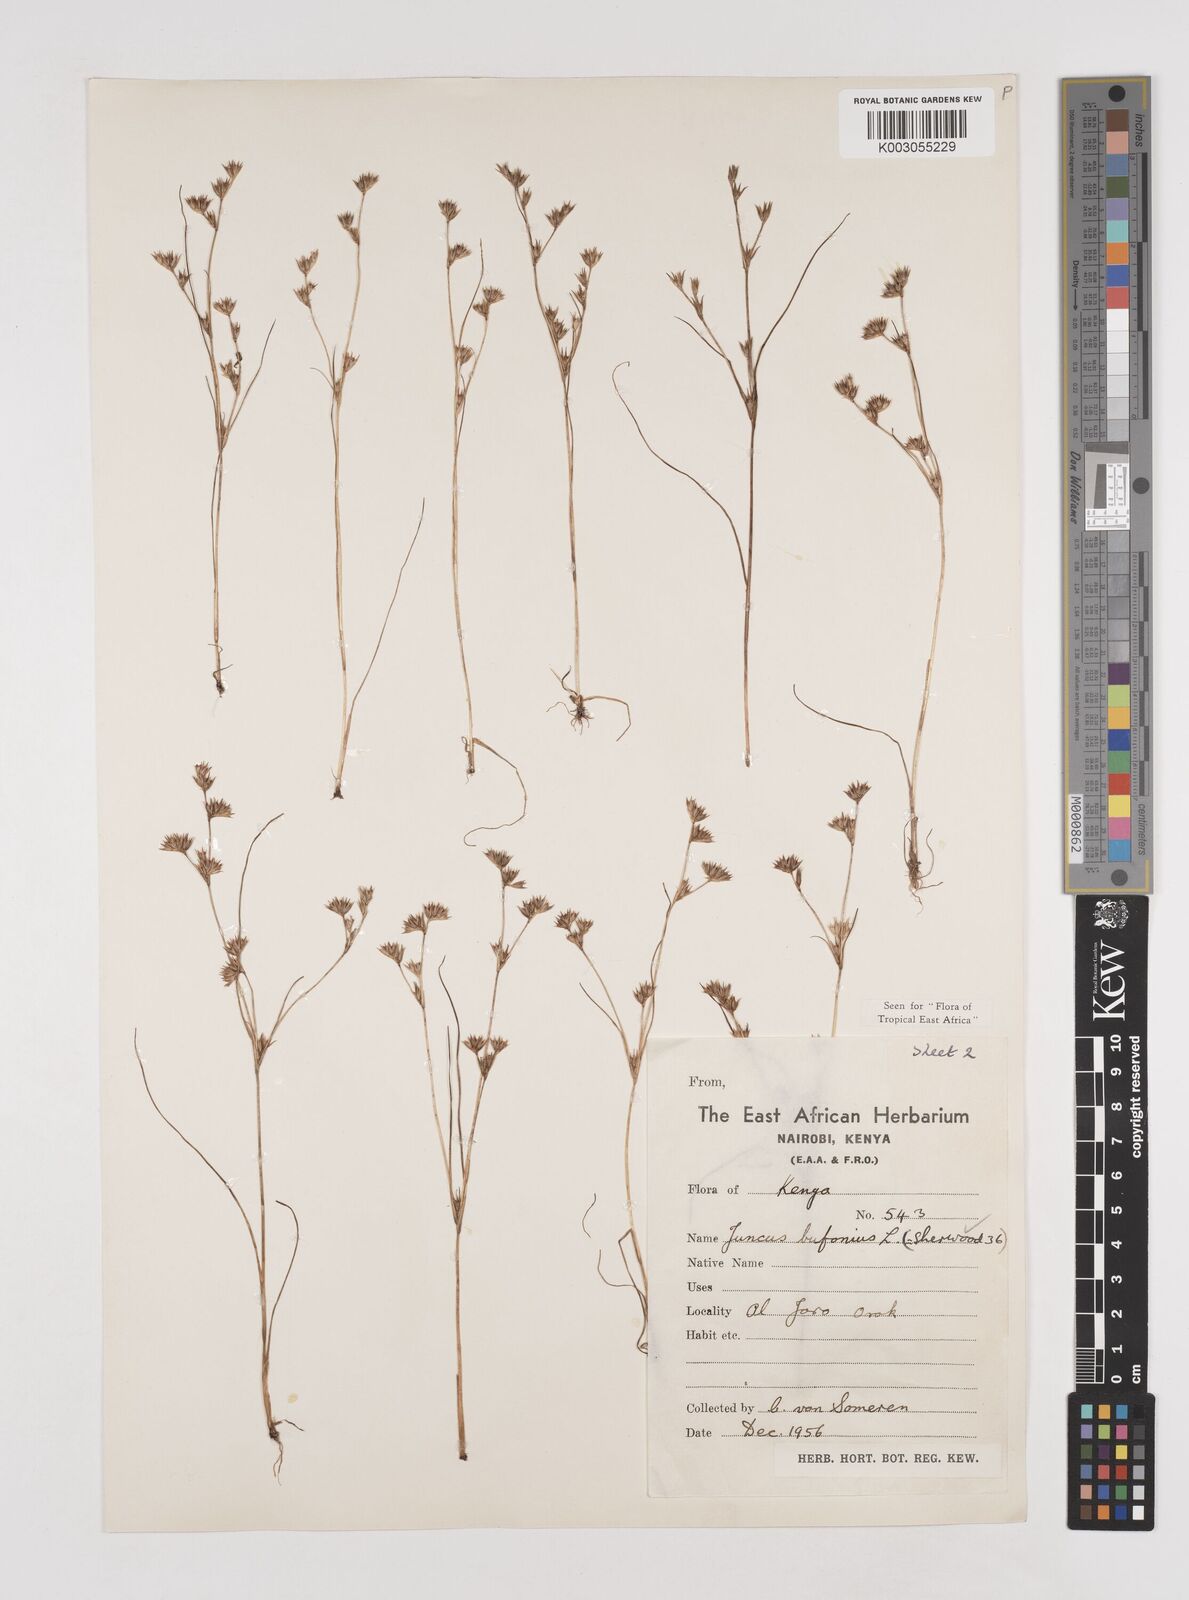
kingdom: Plantae
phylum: Tracheophyta
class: Liliopsida
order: Poales
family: Juncaceae
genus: Juncus
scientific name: Juncus bufonius
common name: Toad rush
